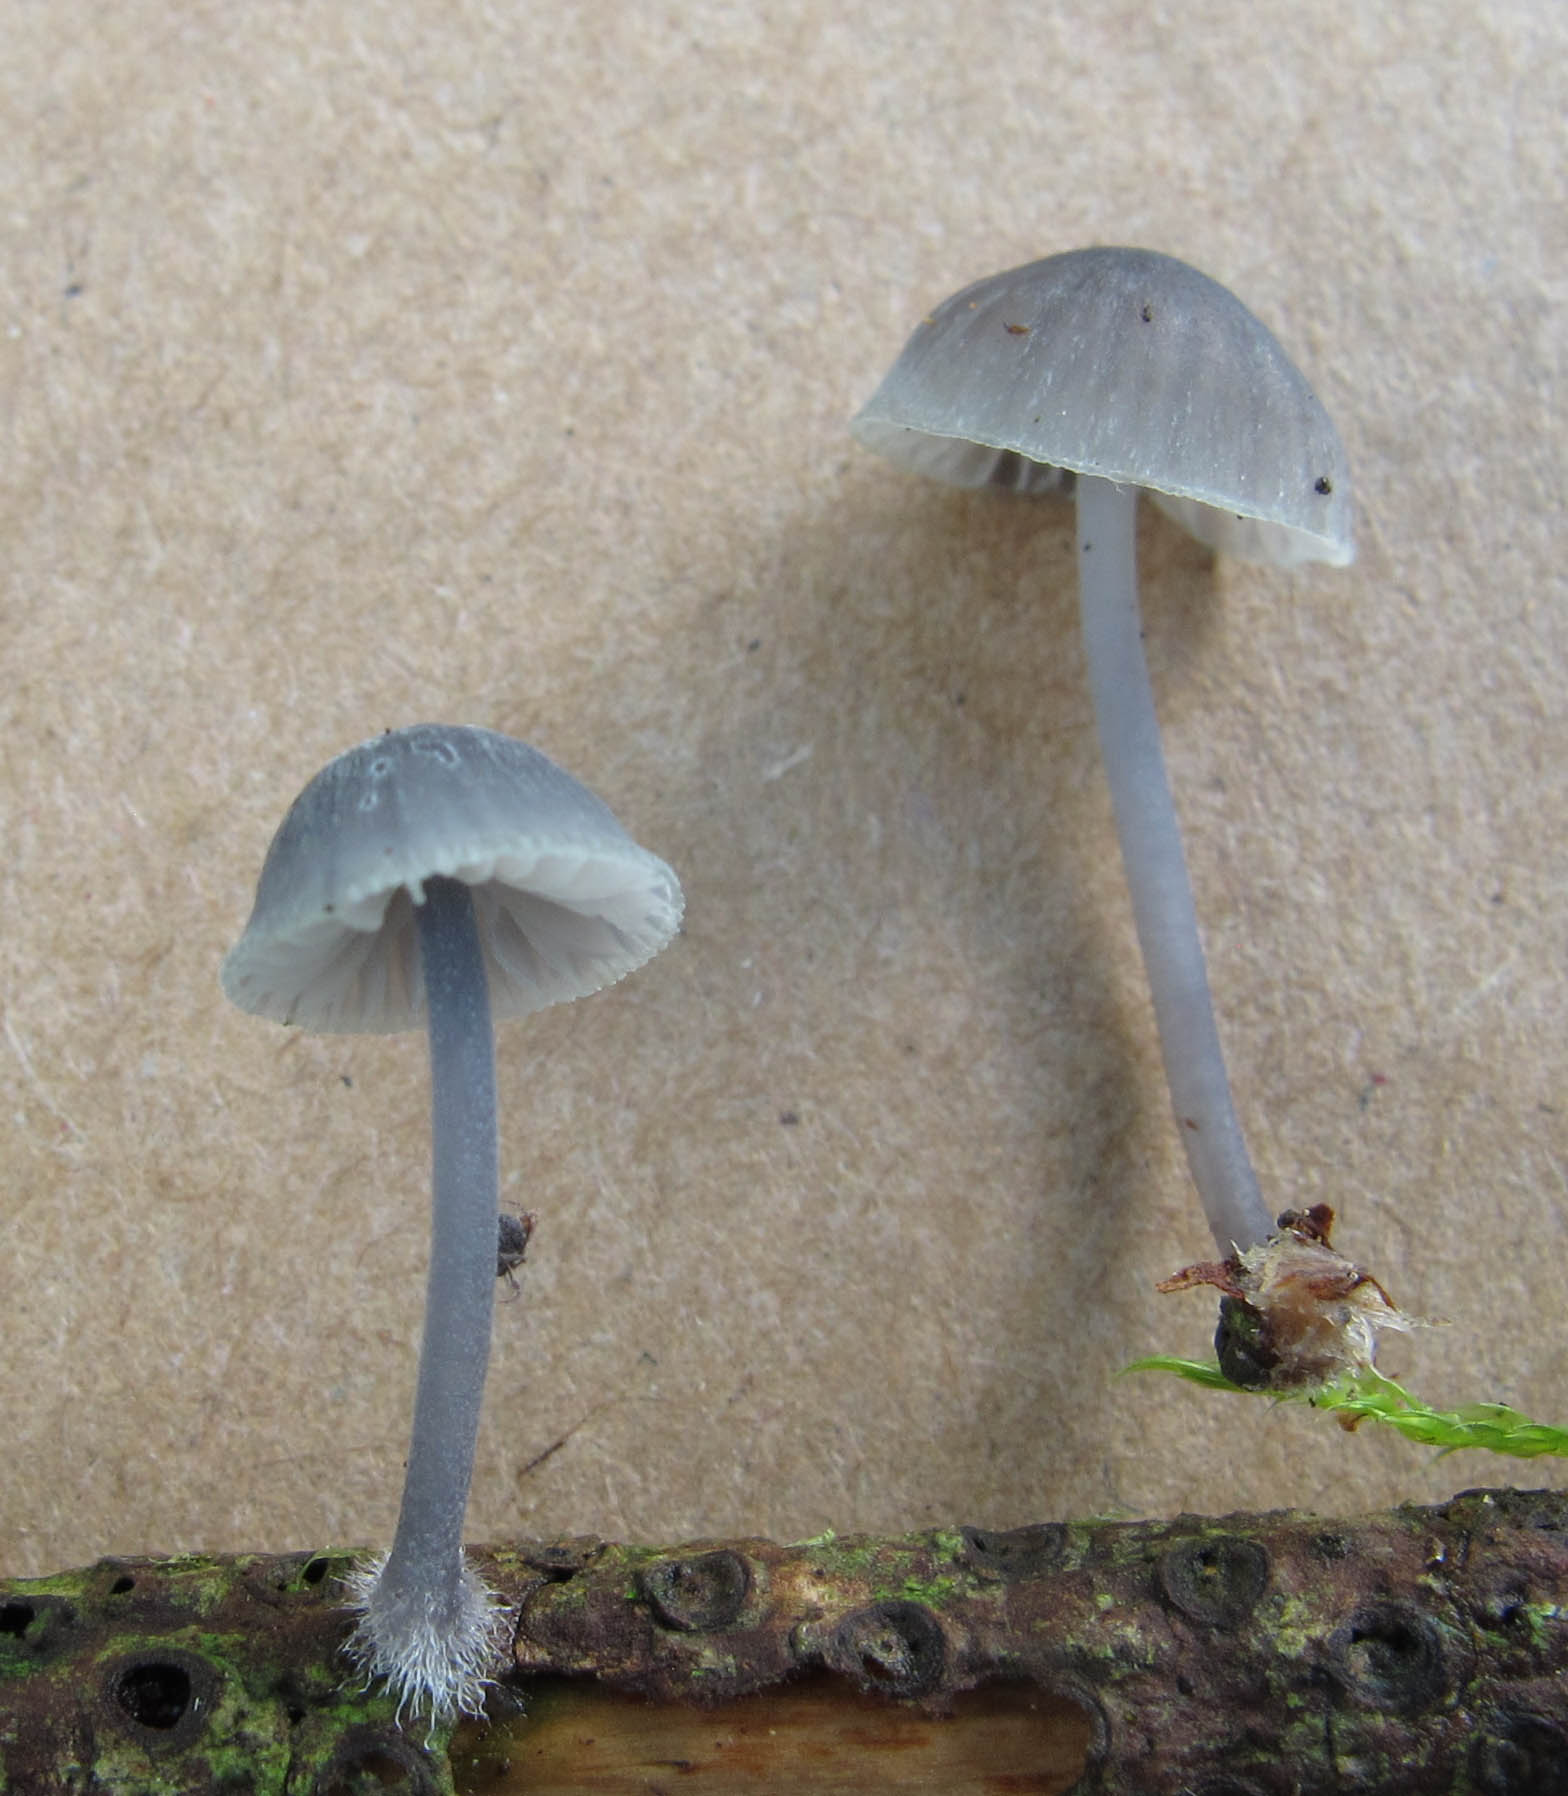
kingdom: Fungi
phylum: Basidiomycota
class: Agaricomycetes
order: Agaricales
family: Mycenaceae
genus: Mycena
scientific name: Mycena pseudocorticola
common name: gråblå bark-huesvamp
